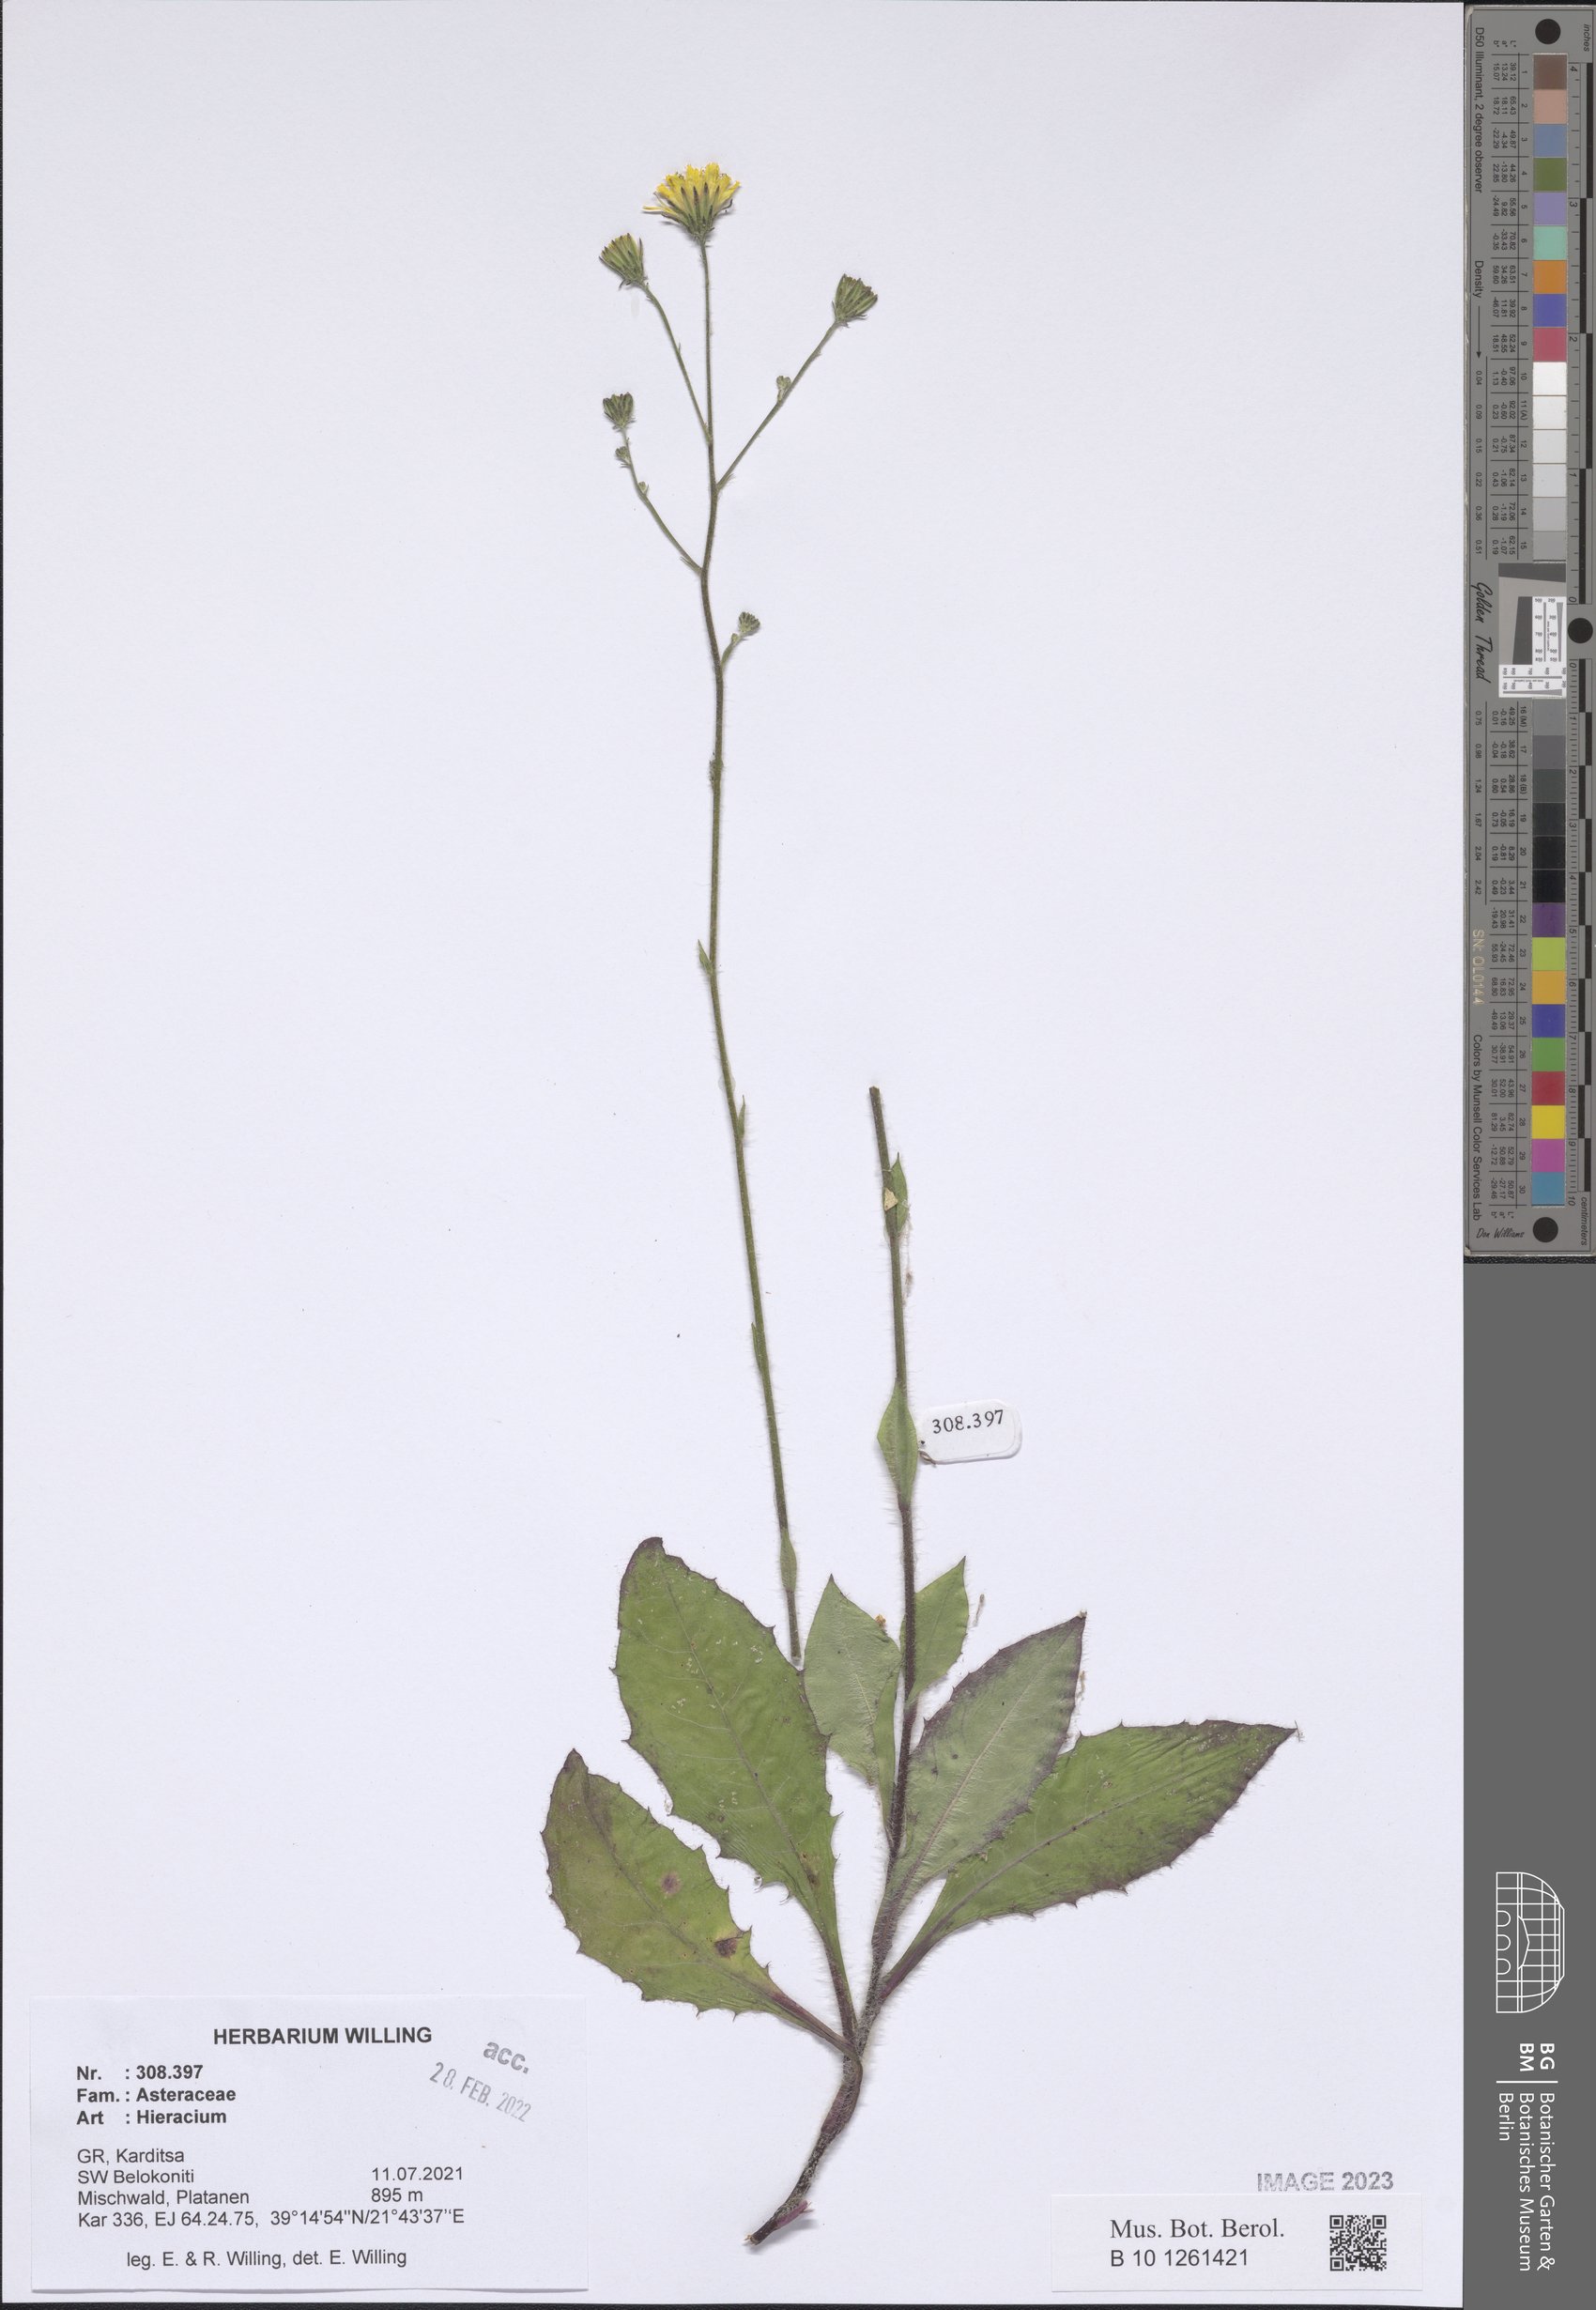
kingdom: Plantae
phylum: Tracheophyta
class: Magnoliopsida
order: Asterales
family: Asteraceae
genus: Hieracium
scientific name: Hieracium
